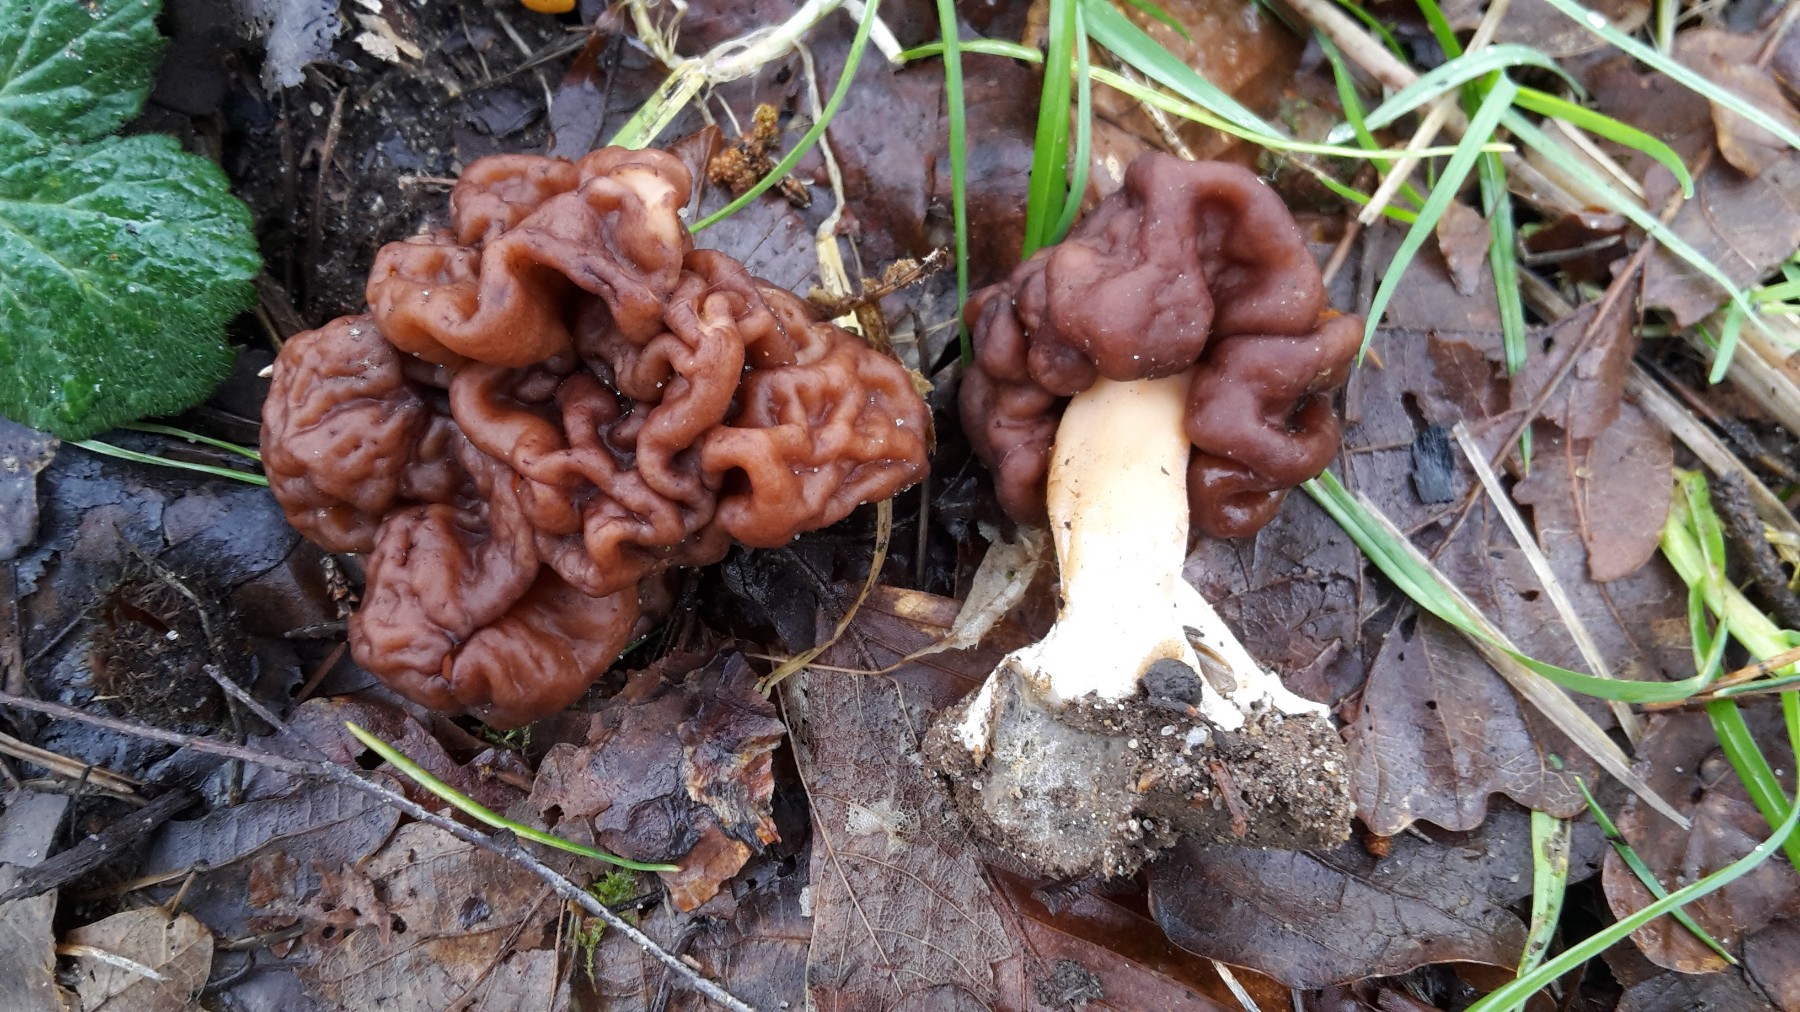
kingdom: Fungi
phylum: Ascomycota
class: Pezizomycetes
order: Pezizales
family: Discinaceae
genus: Gyromitra
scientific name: Gyromitra esculenta
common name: ægte stenmorkel
